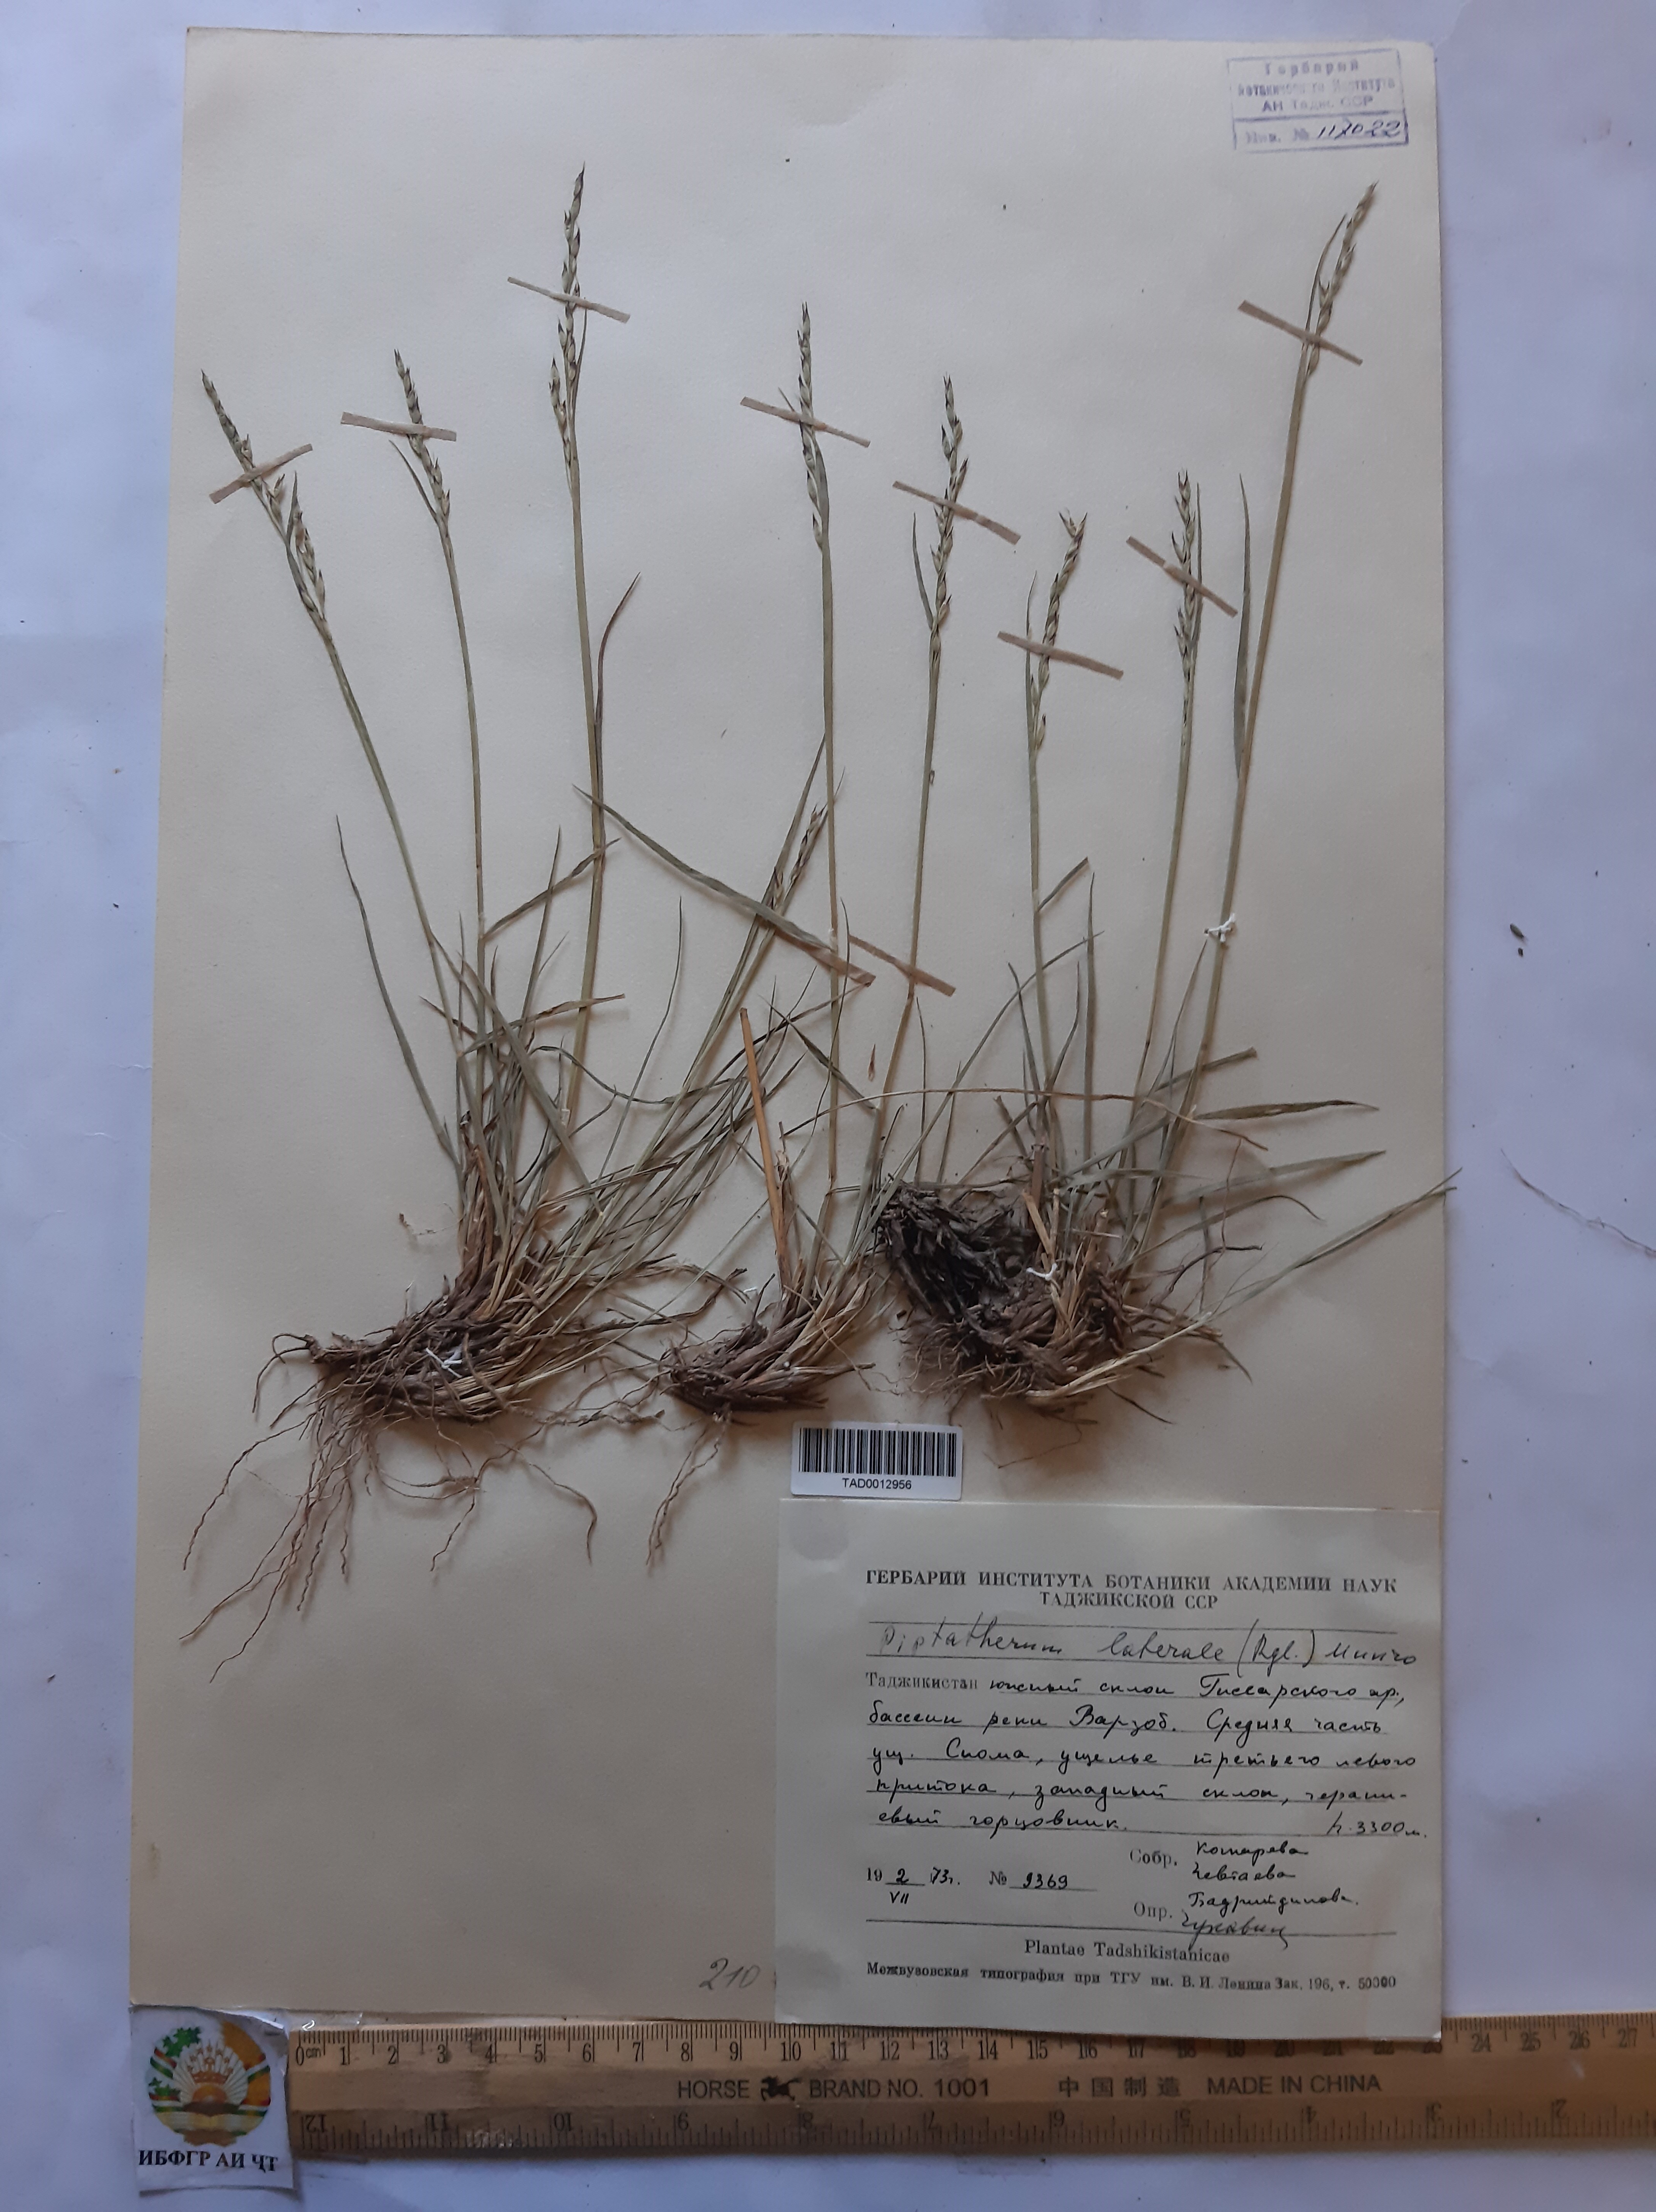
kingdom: Plantae
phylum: Tracheophyta
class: Liliopsida
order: Poales
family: Poaceae
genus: Piptatherum
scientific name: Piptatherum laterale
